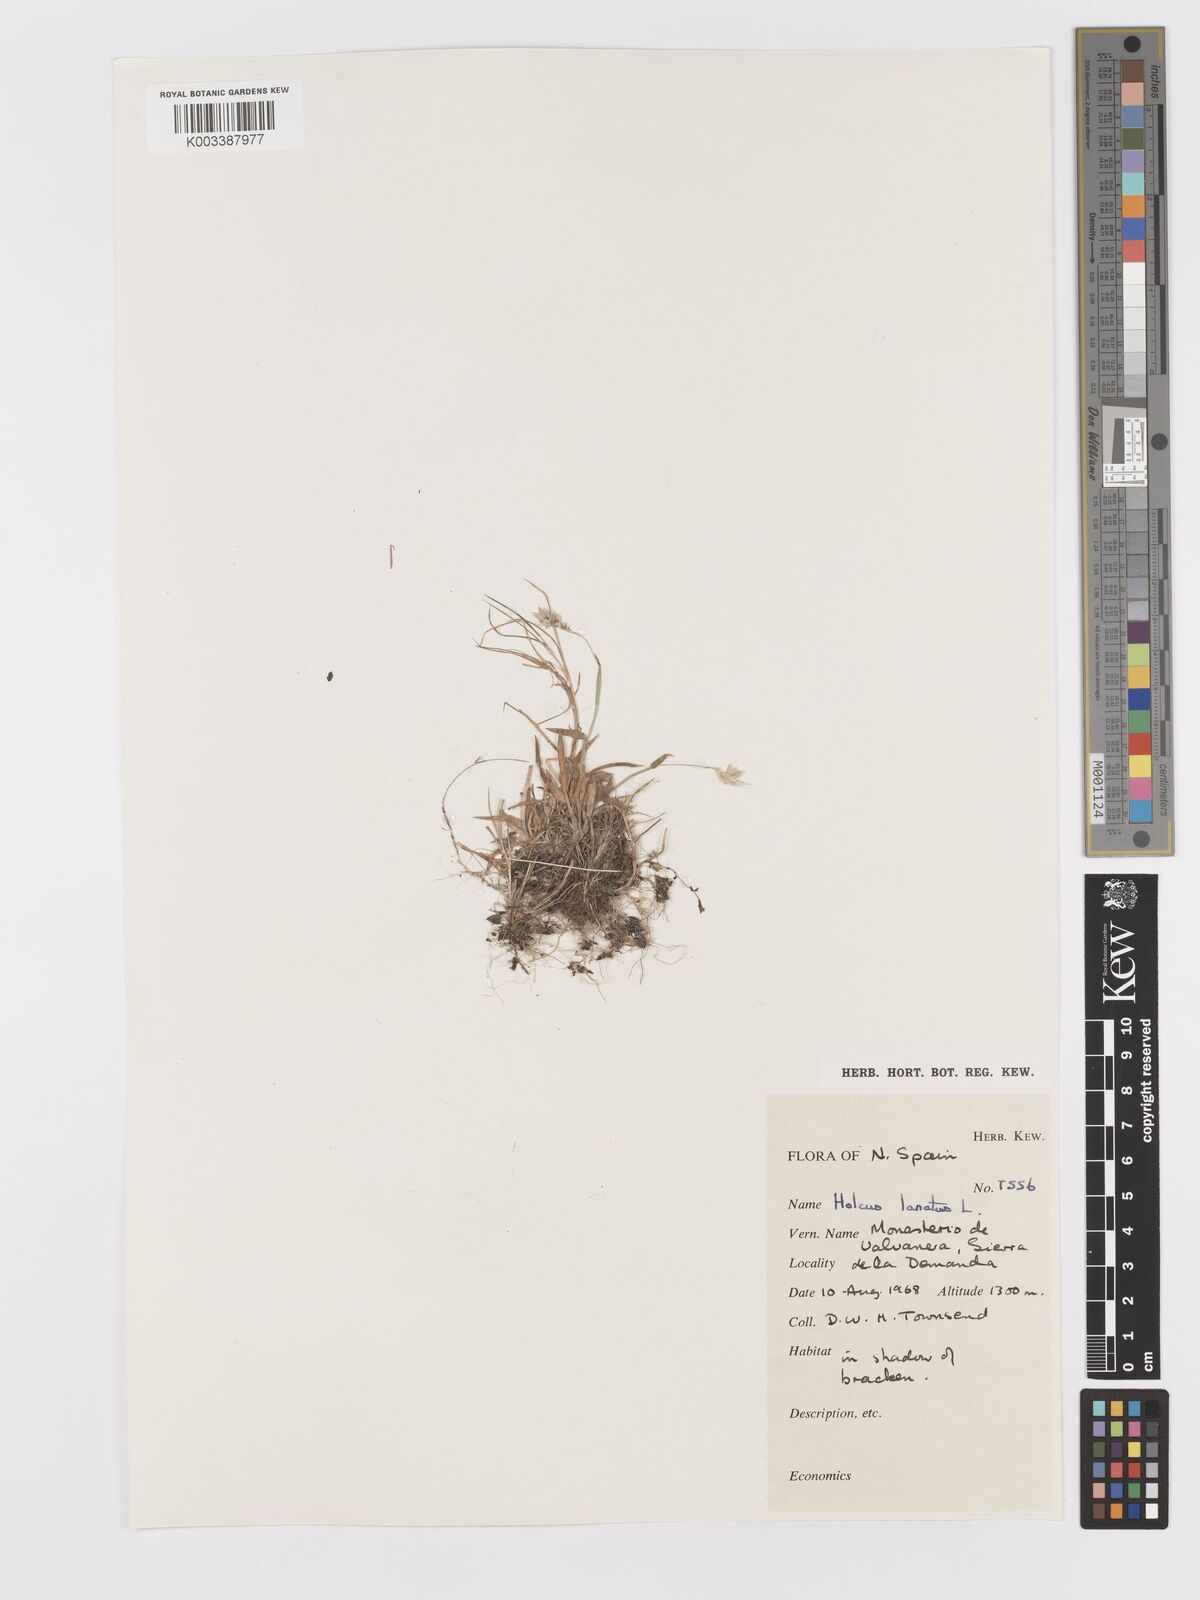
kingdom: Plantae
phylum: Tracheophyta
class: Liliopsida
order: Poales
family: Poaceae
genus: Holcus
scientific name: Holcus lanatus
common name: Yorkshire-fog
